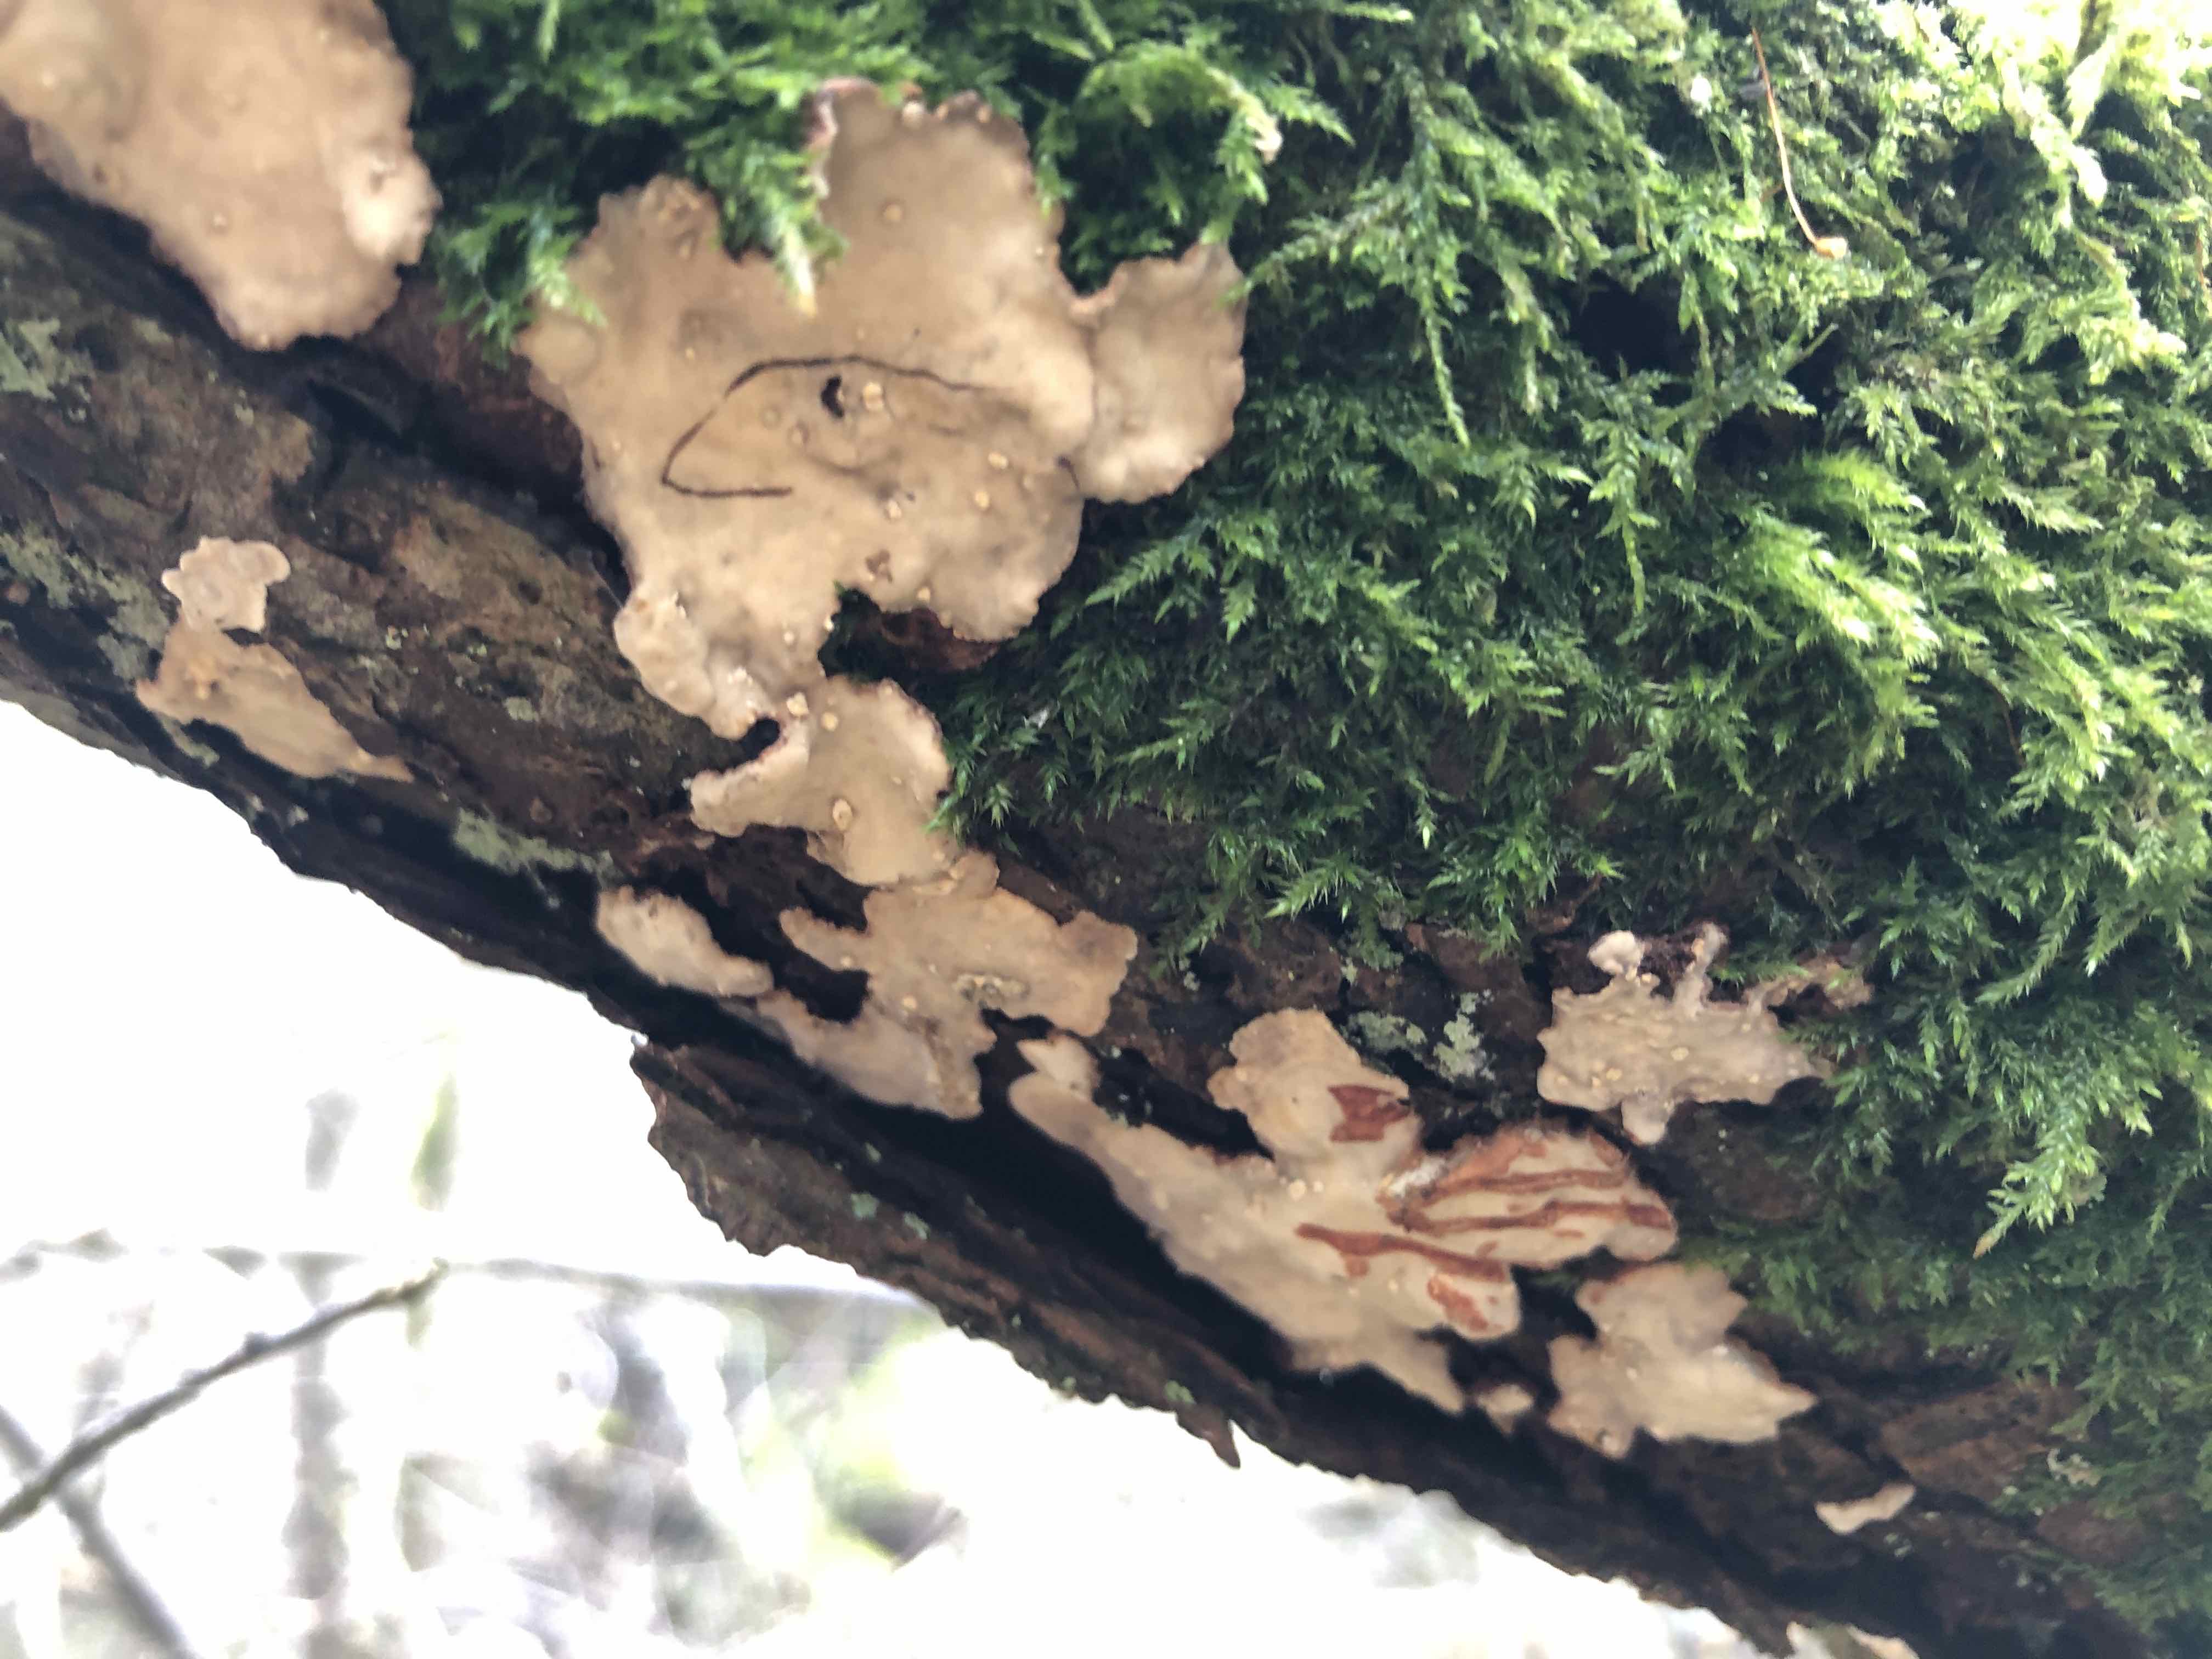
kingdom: Fungi
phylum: Basidiomycota
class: Agaricomycetes
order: Russulales
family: Stereaceae
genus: Stereum
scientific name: Stereum rugosum
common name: rynket lædersvamp
